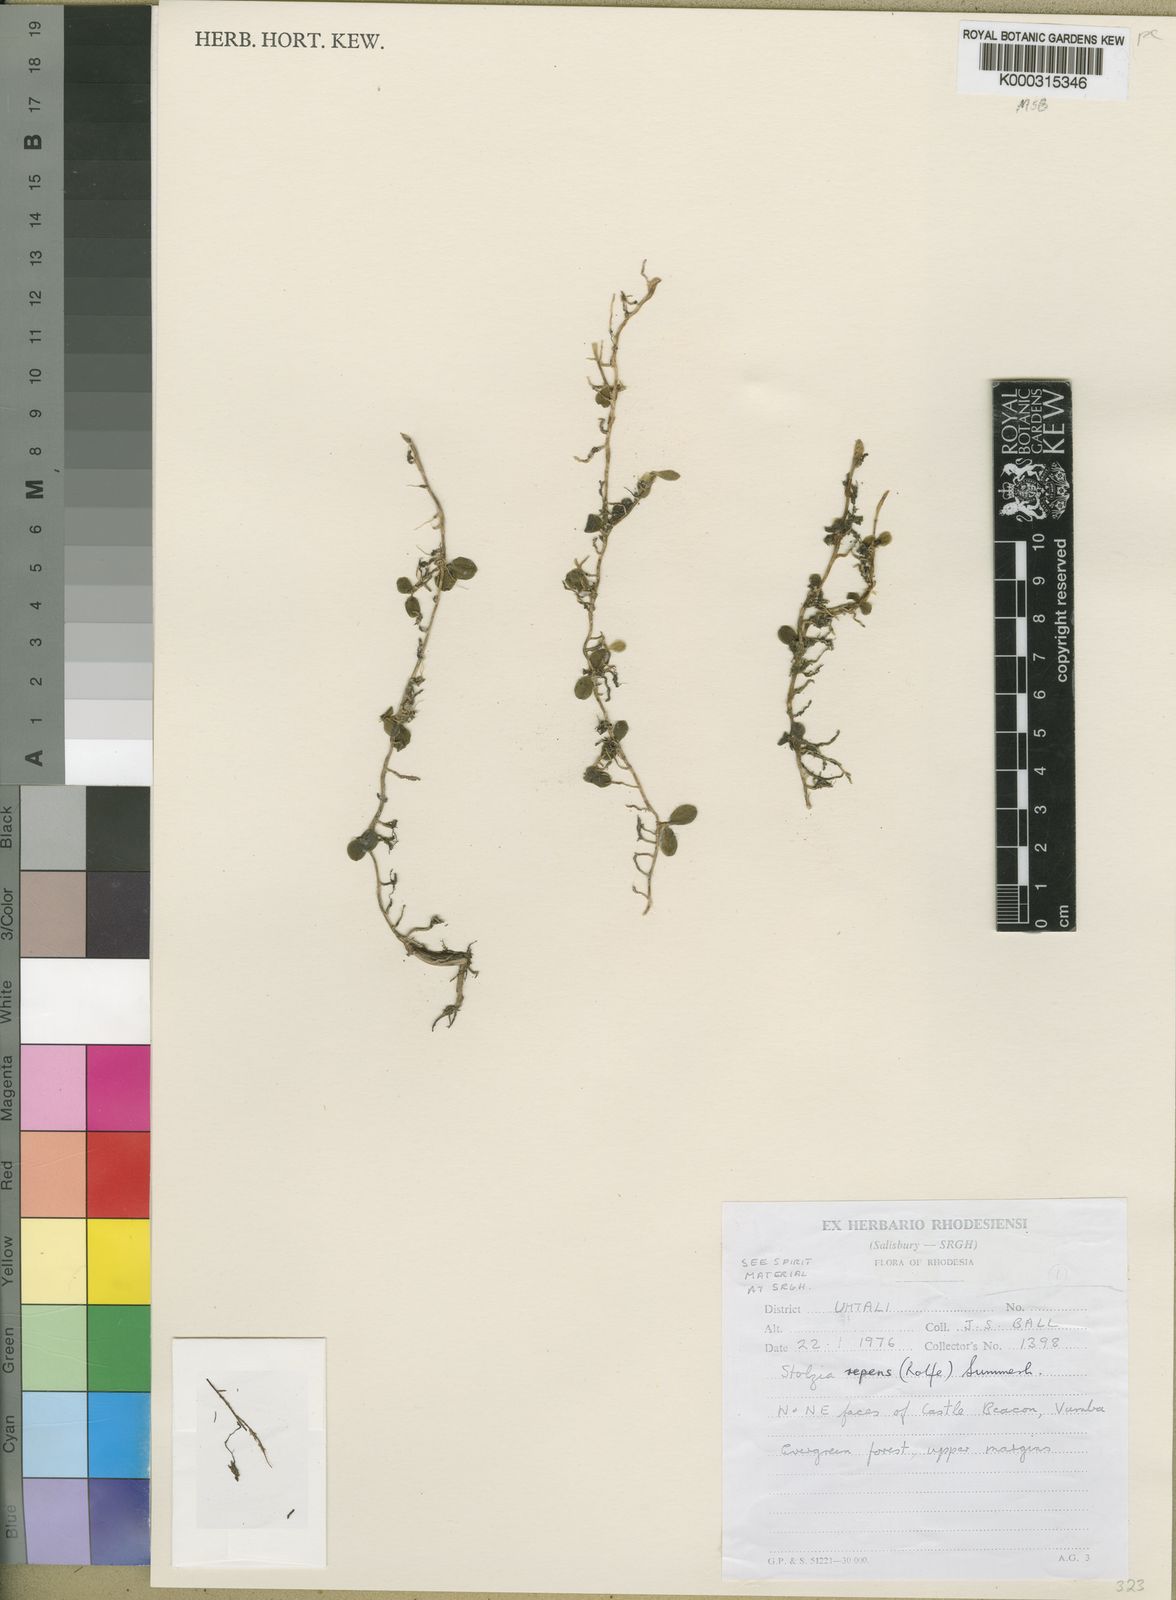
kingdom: Plantae
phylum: Tracheophyta
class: Liliopsida
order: Asparagales
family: Orchidaceae
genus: Porpax
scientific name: Porpax repens
